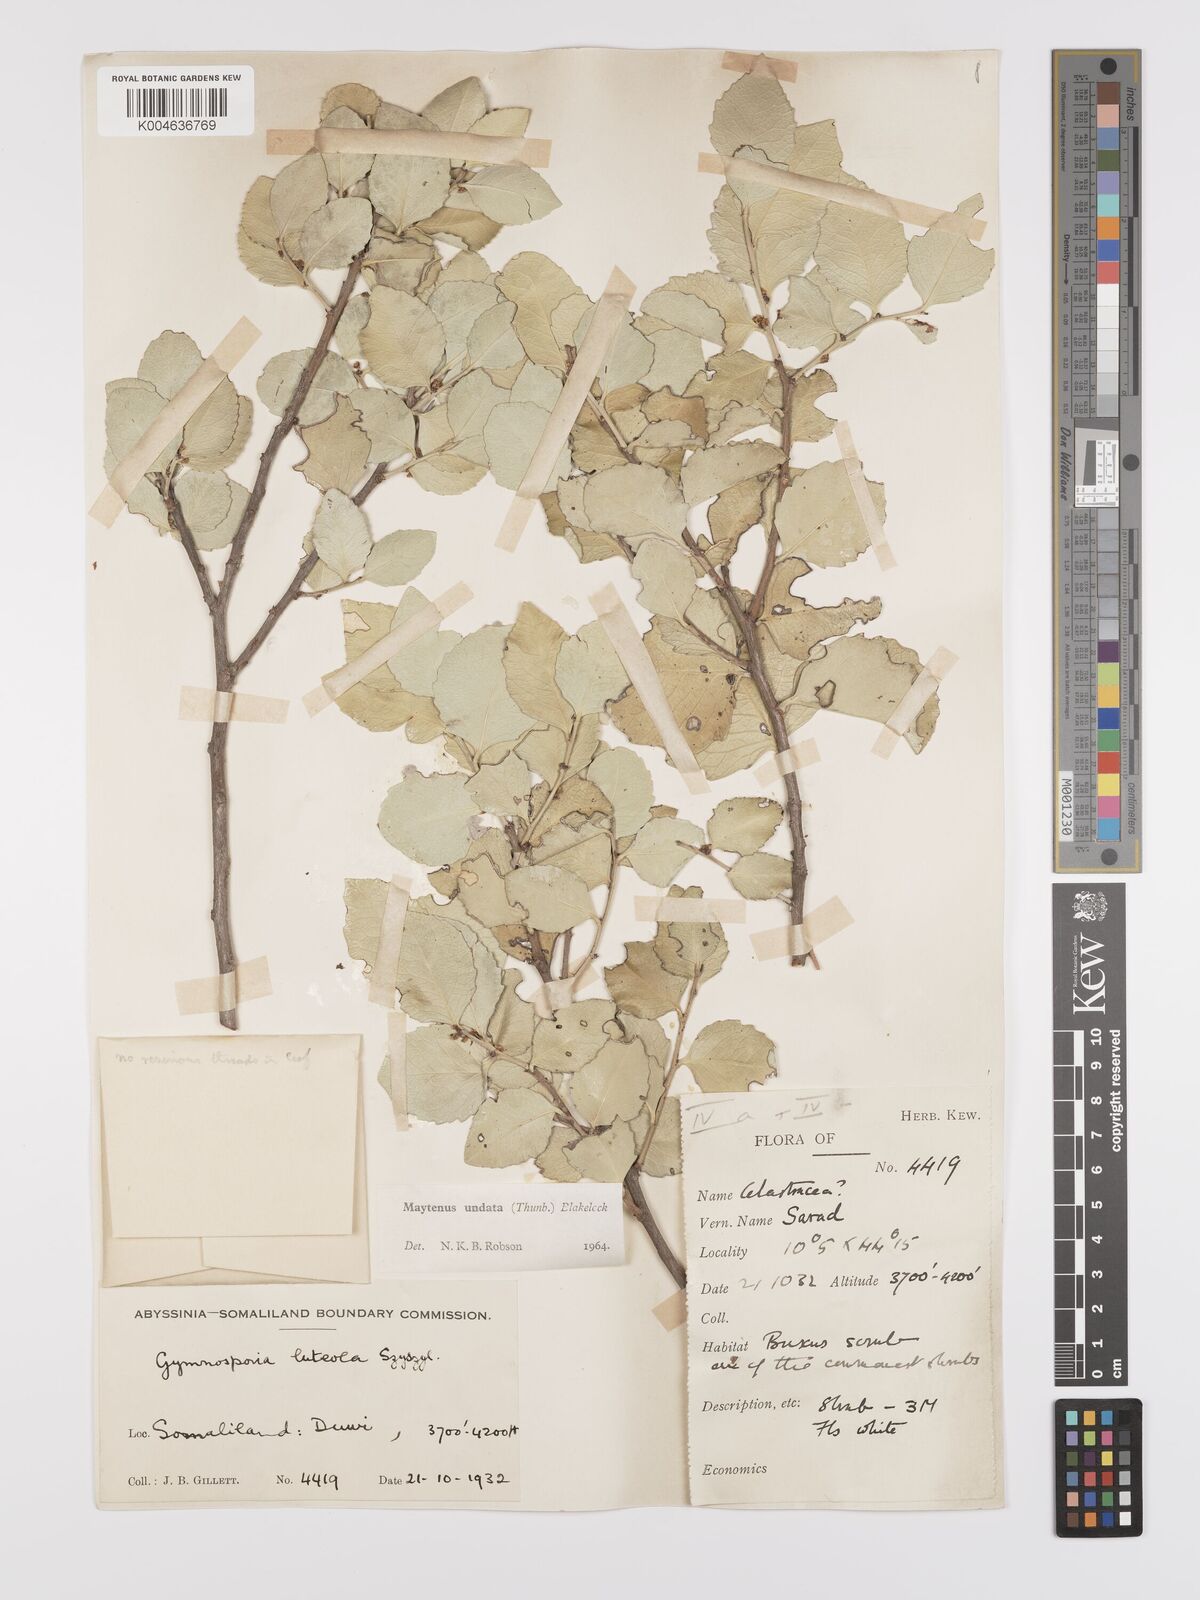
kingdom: Plantae
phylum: Tracheophyta
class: Magnoliopsida
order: Celastrales
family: Celastraceae
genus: Gymnosporia
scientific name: Gymnosporia undata
